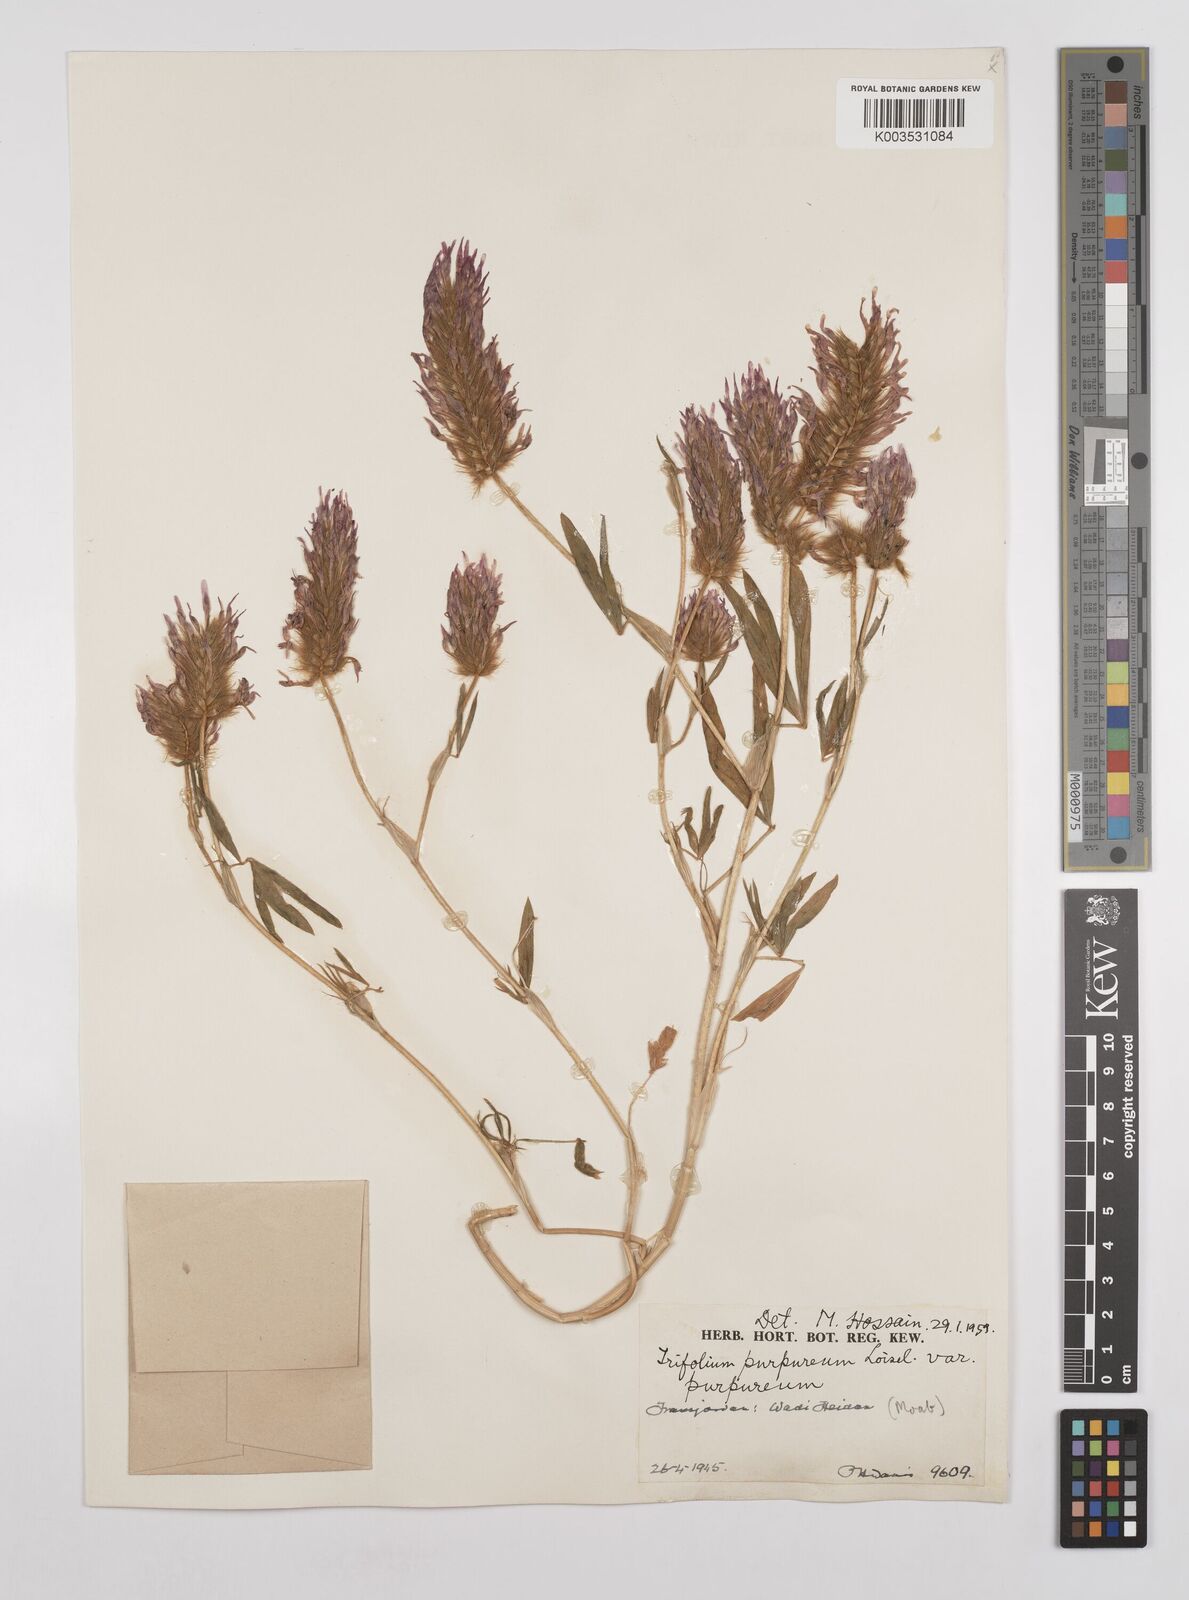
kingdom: Plantae
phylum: Tracheophyta
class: Magnoliopsida
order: Fabales
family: Fabaceae
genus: Trifolium
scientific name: Trifolium purpureum
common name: Purple clover
